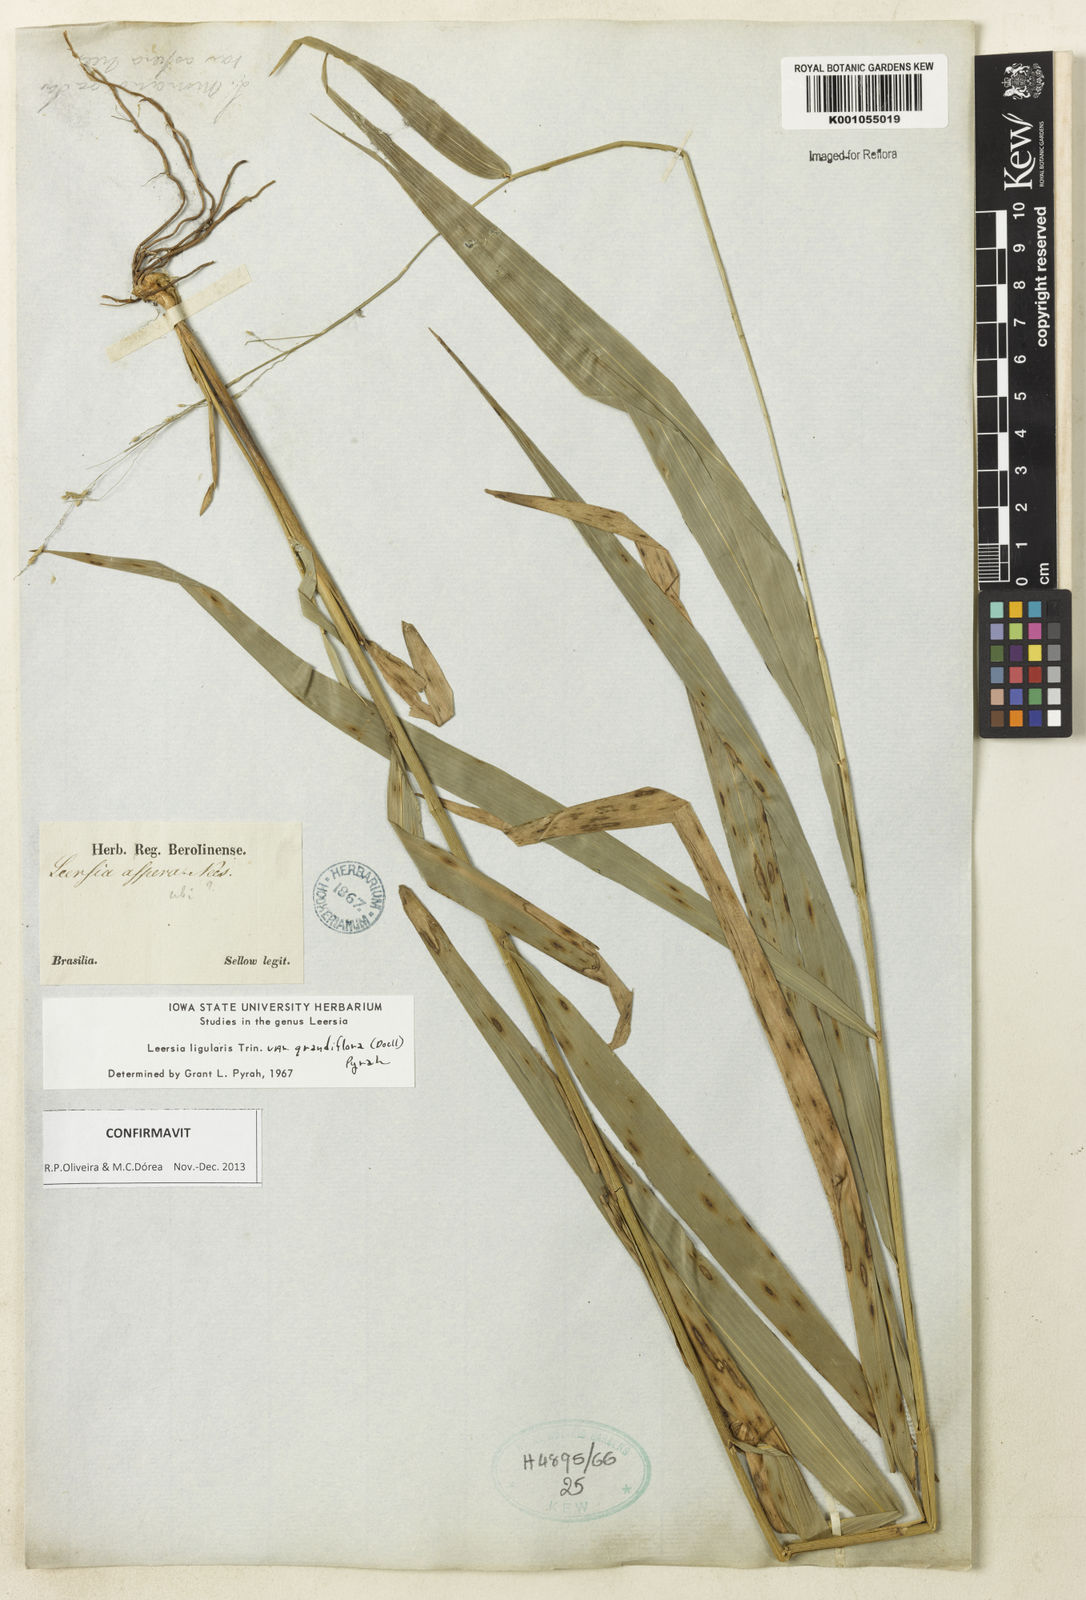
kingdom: Plantae
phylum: Tracheophyta
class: Liliopsida
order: Poales
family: Poaceae
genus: Leersia
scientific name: Leersia ligularis
